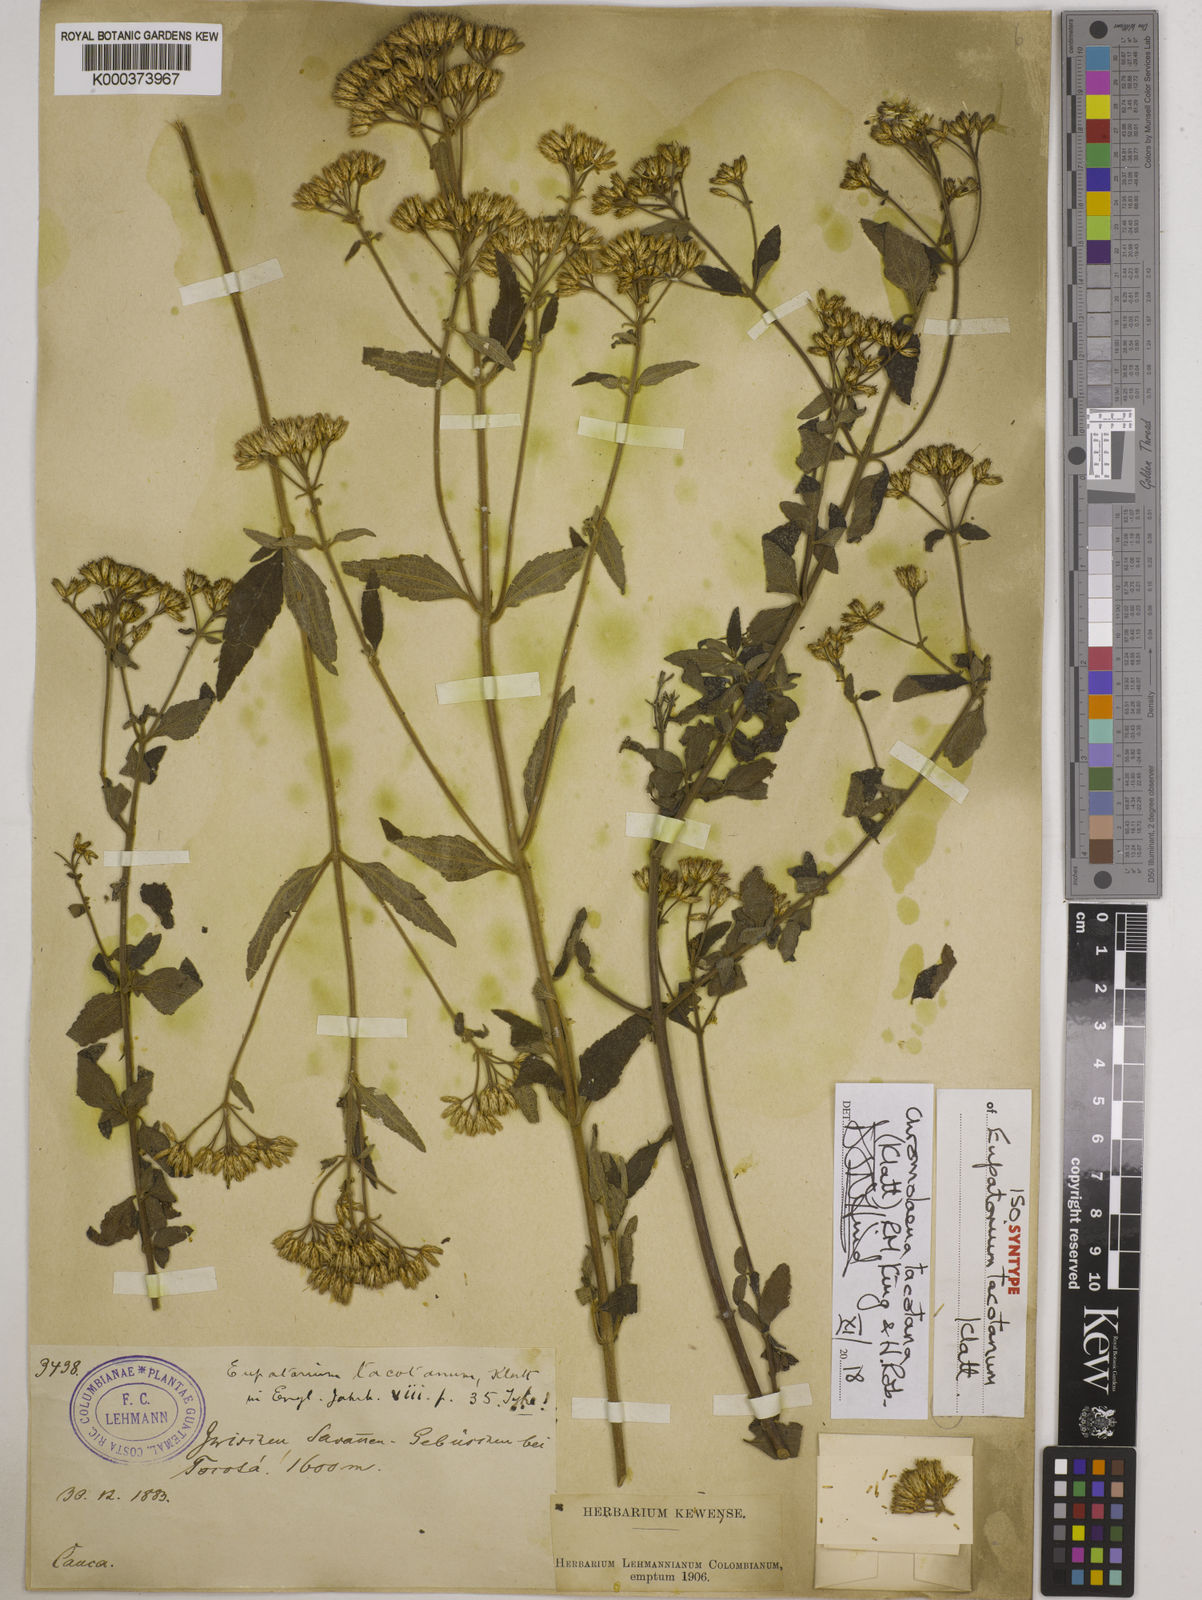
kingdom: Plantae
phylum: Tracheophyta
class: Magnoliopsida
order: Asterales
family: Asteraceae
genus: Chromolaena
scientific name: Chromolaena tacotana
